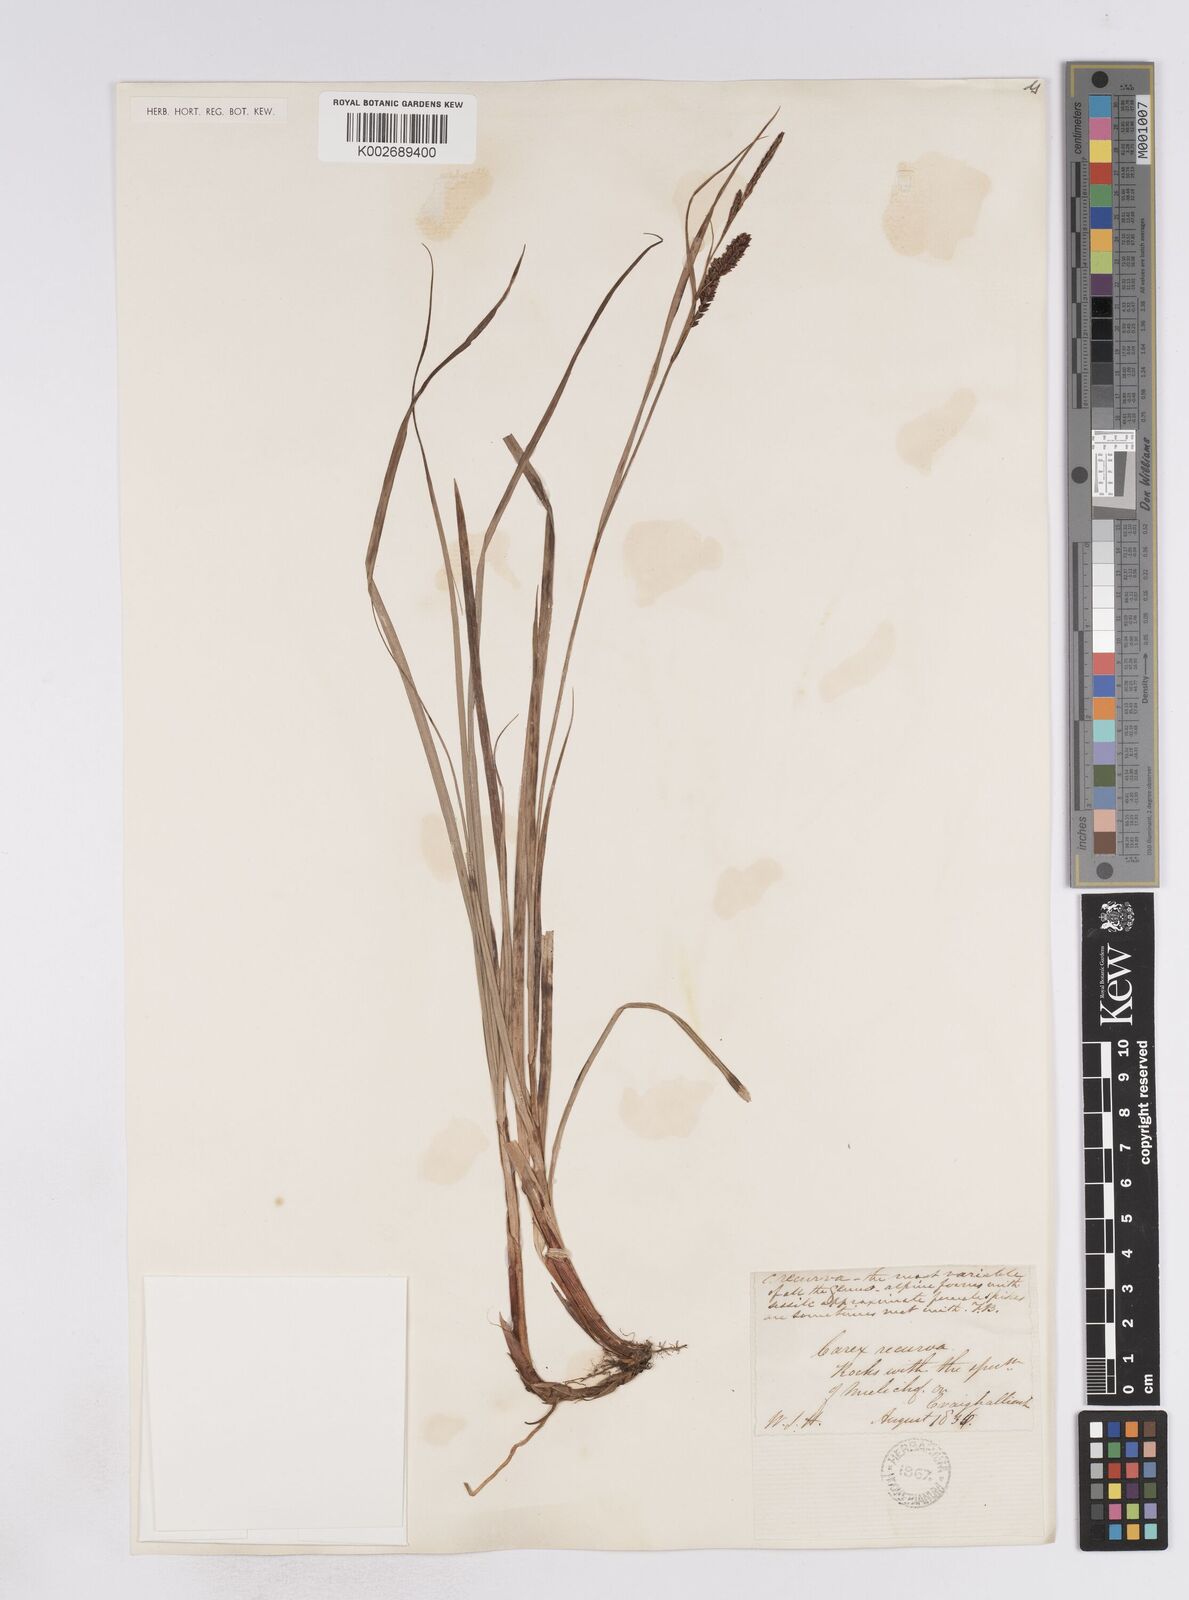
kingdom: Plantae
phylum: Tracheophyta
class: Liliopsida
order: Poales
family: Cyperaceae
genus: Carex
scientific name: Carex flacca
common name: Glaucous sedge
